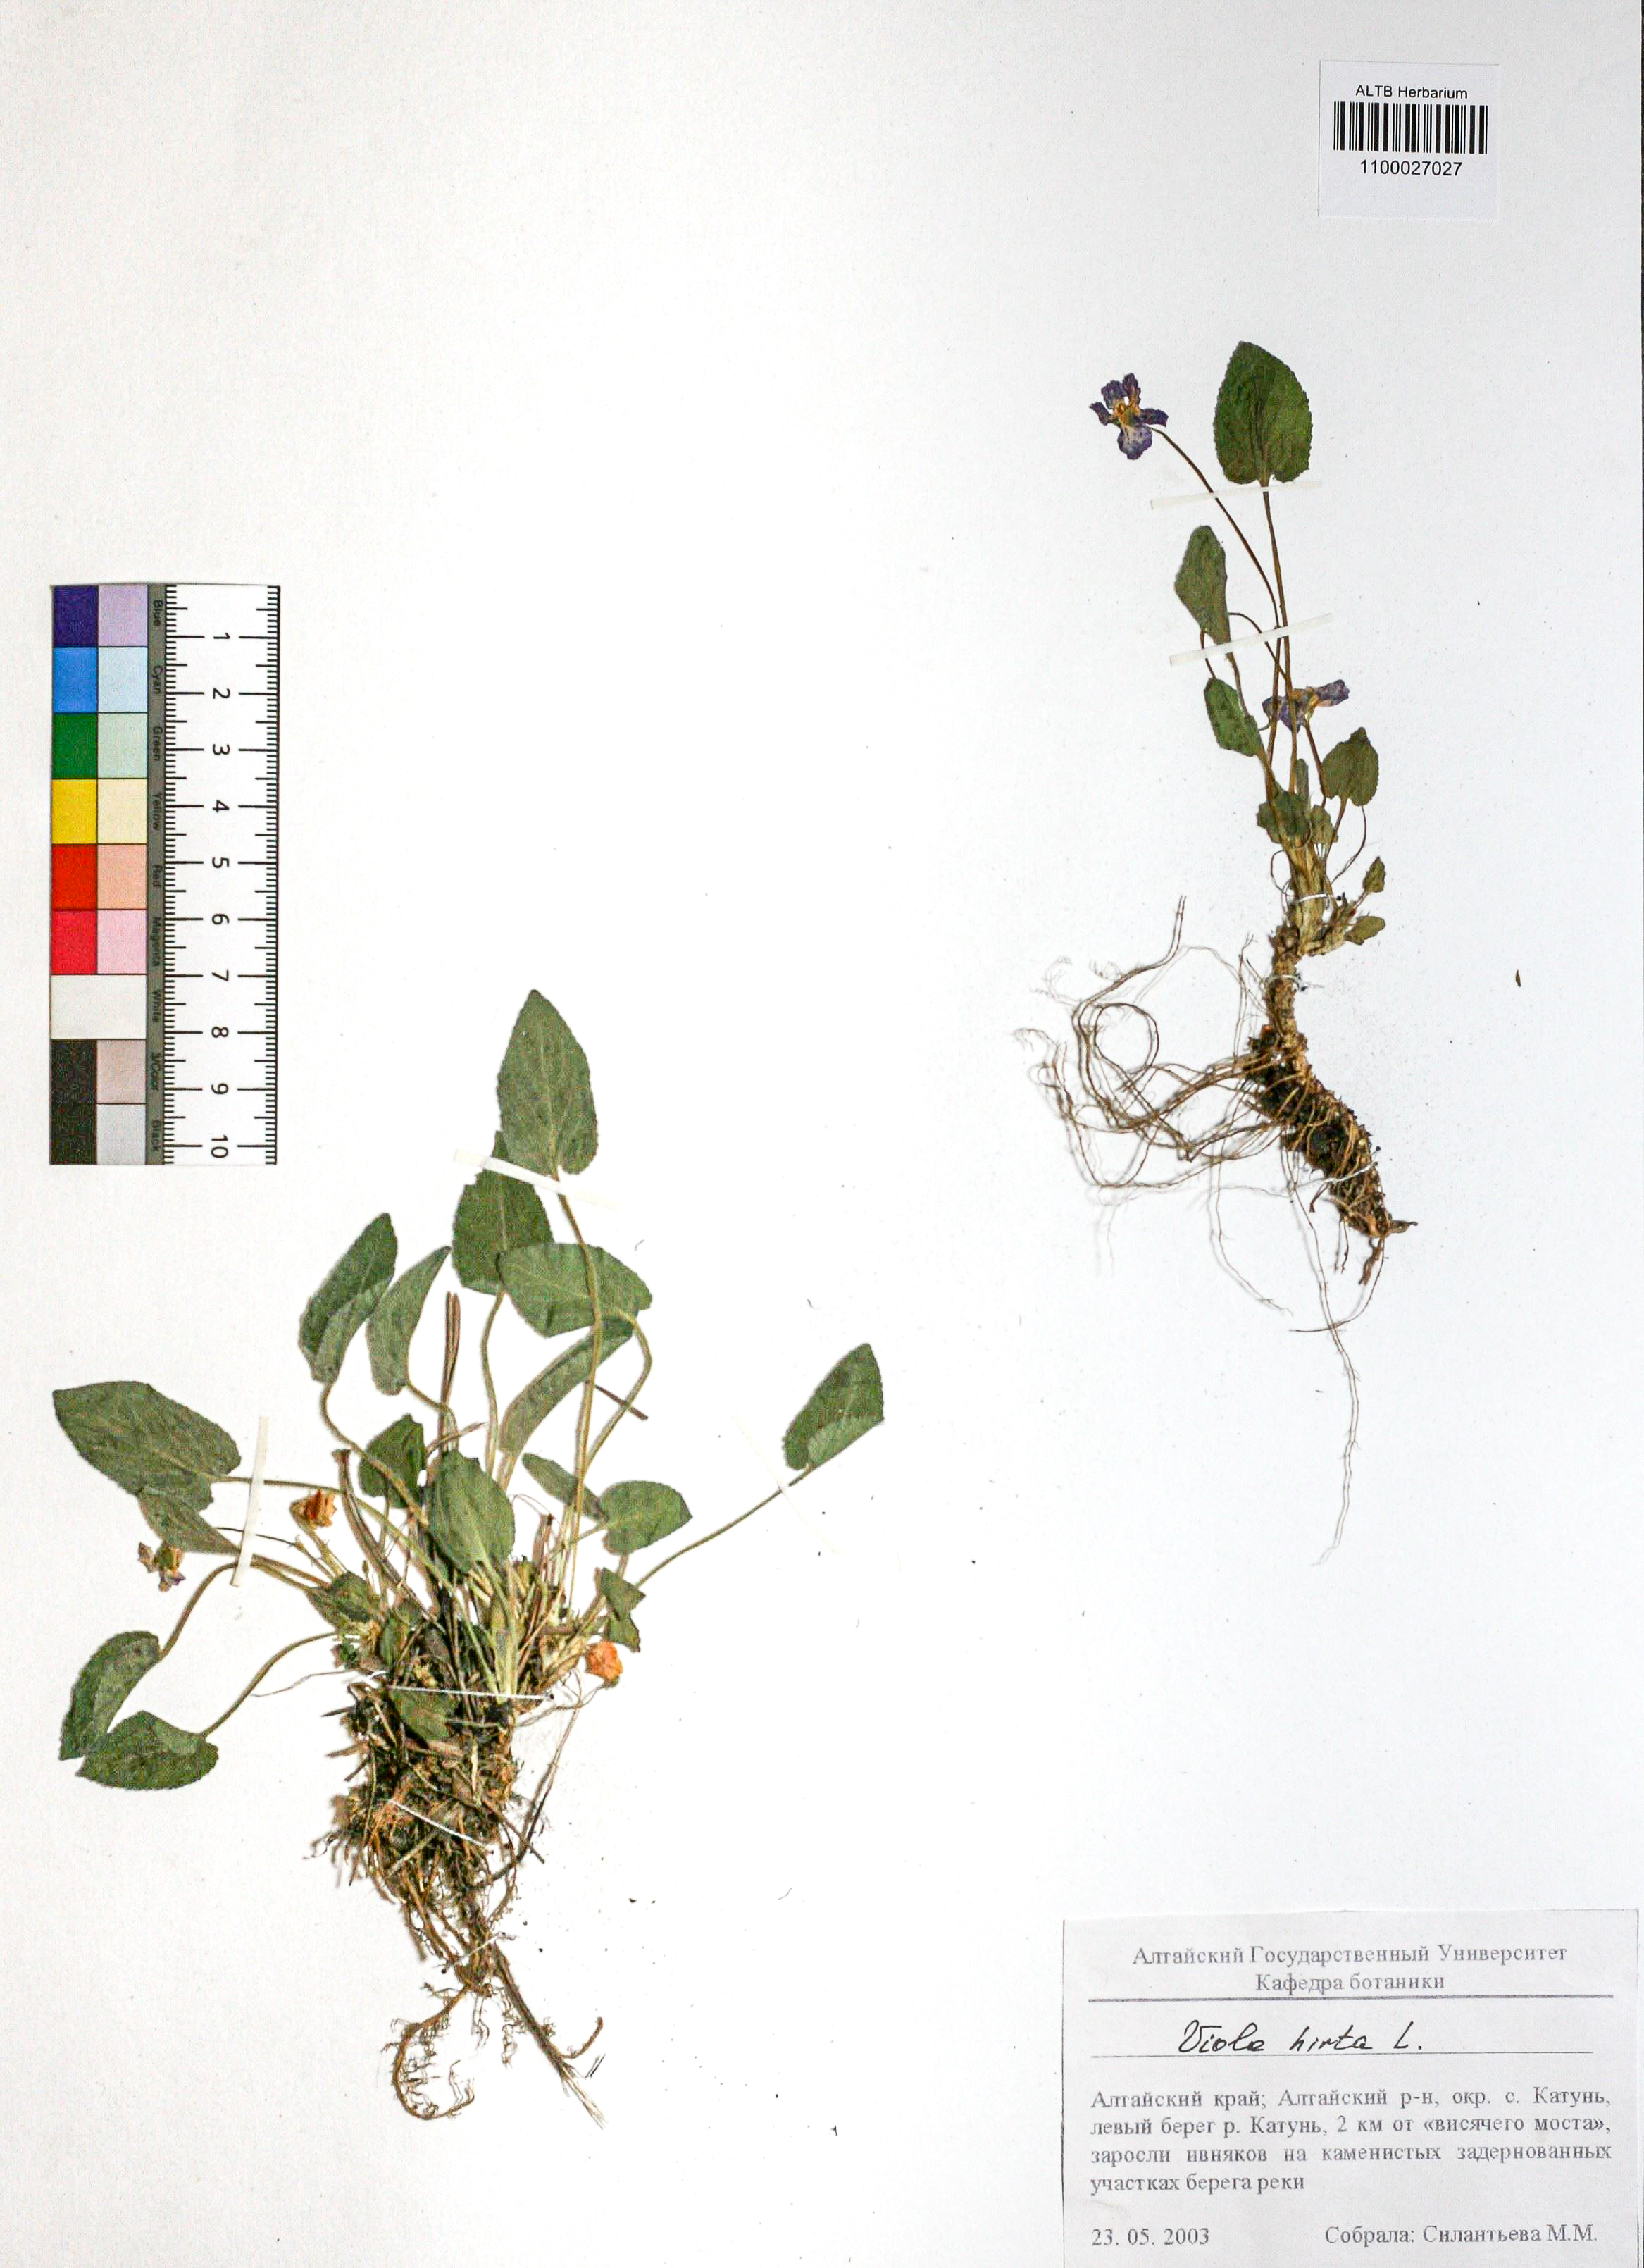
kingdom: Plantae
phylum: Tracheophyta
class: Magnoliopsida
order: Malpighiales
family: Violaceae
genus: Viola
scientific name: Viola hirta
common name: Hairy violet
